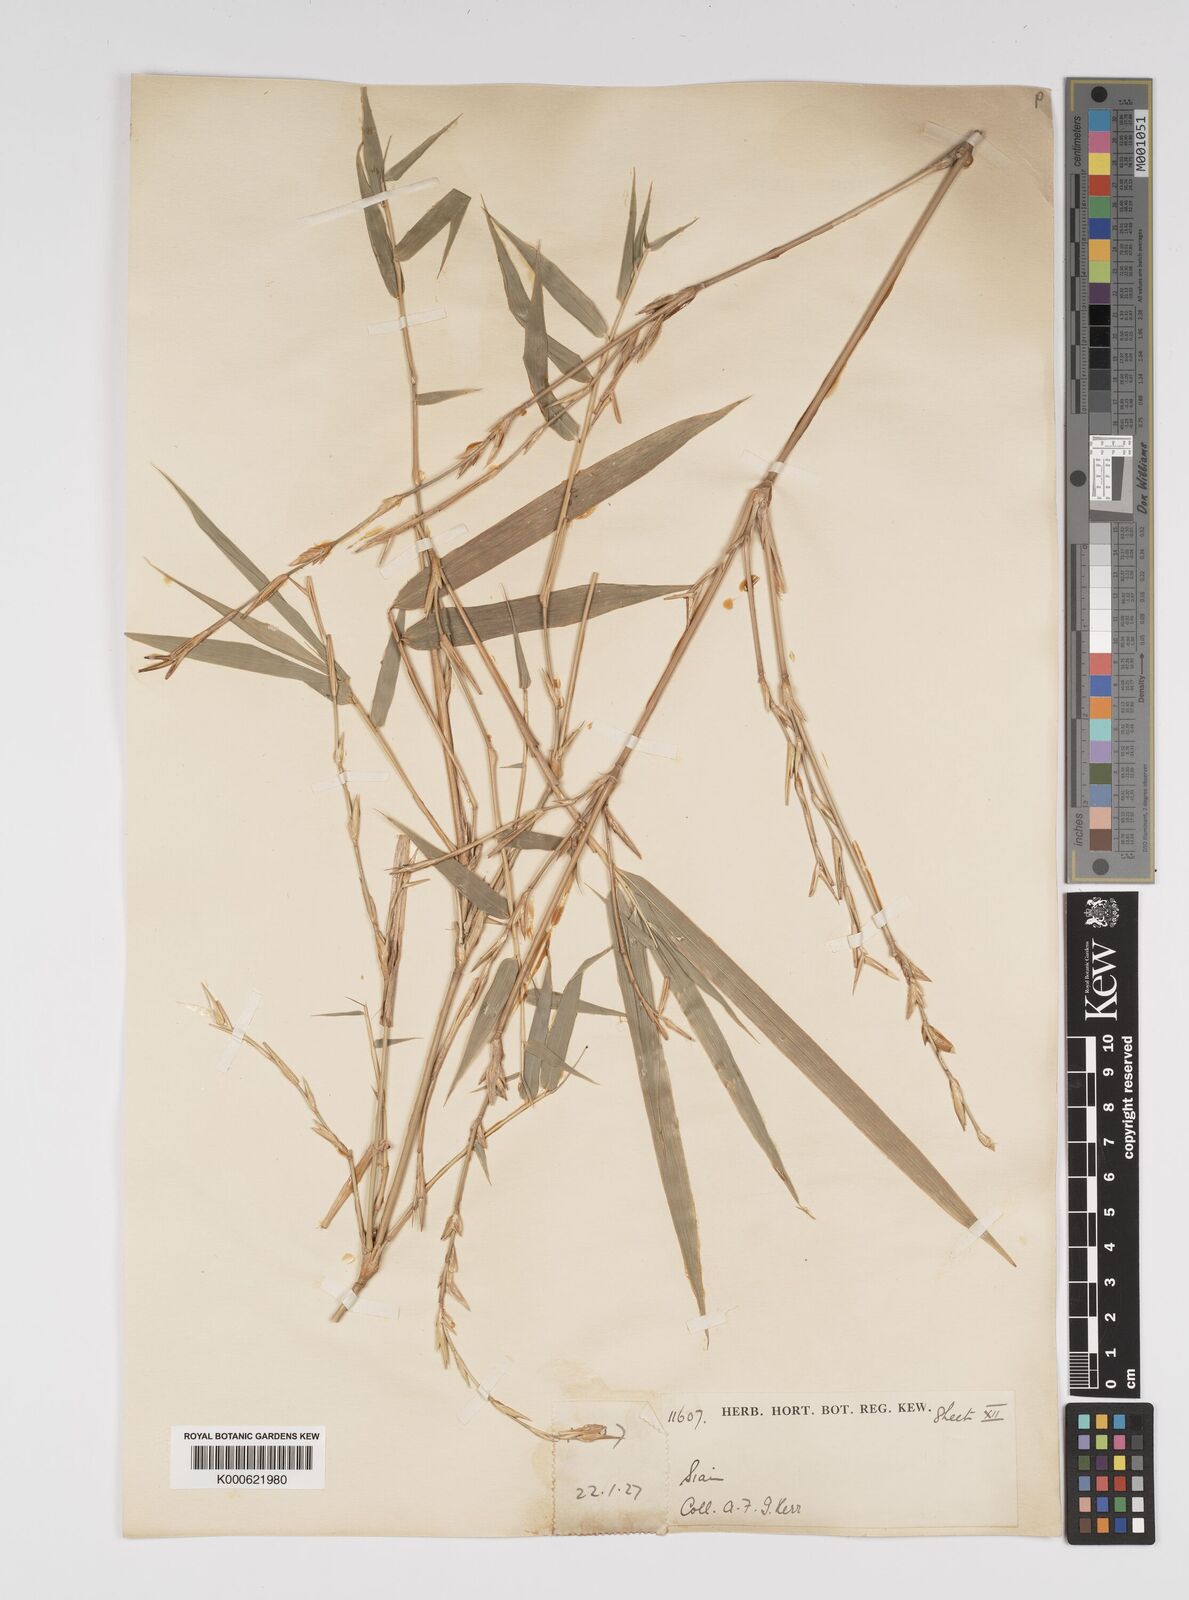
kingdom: Plantae
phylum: Tracheophyta
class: Liliopsida
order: Poales
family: Poaceae
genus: Bambusa
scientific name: Bambusa
